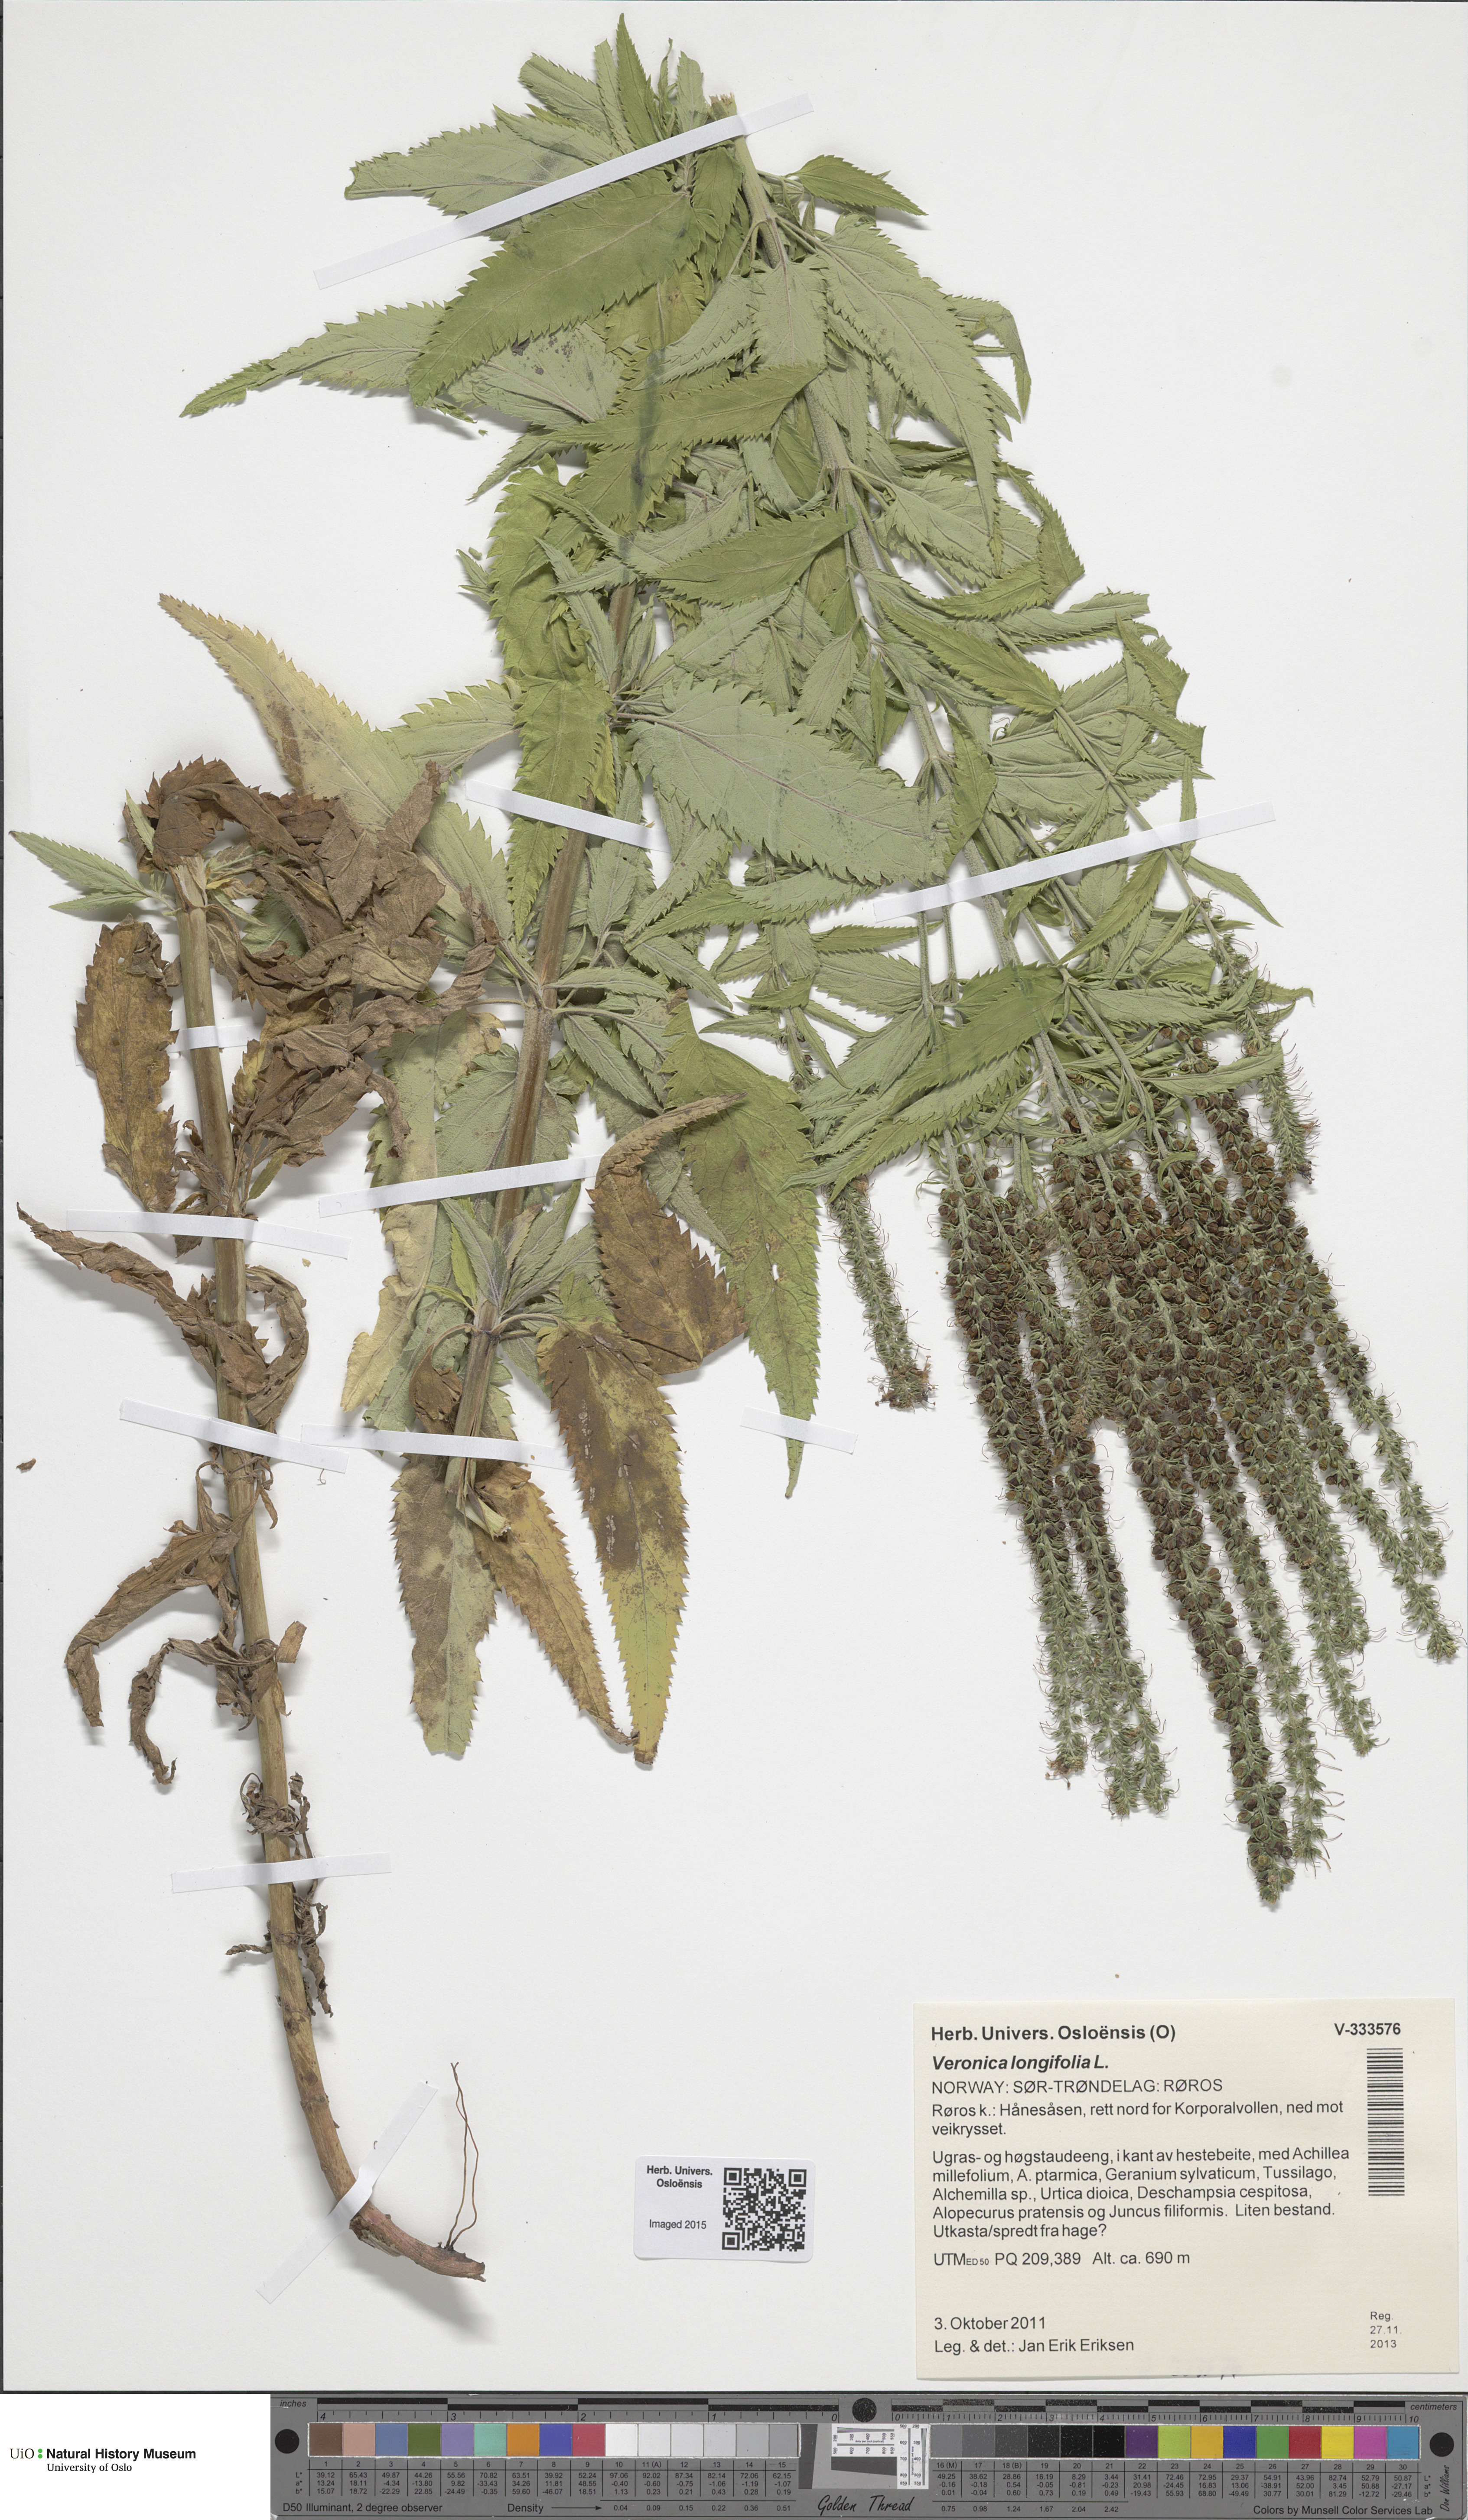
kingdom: Plantae
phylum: Tracheophyta
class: Magnoliopsida
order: Lamiales
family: Plantaginaceae
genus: Veronica
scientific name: Veronica longifolia
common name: Garden speedwell
